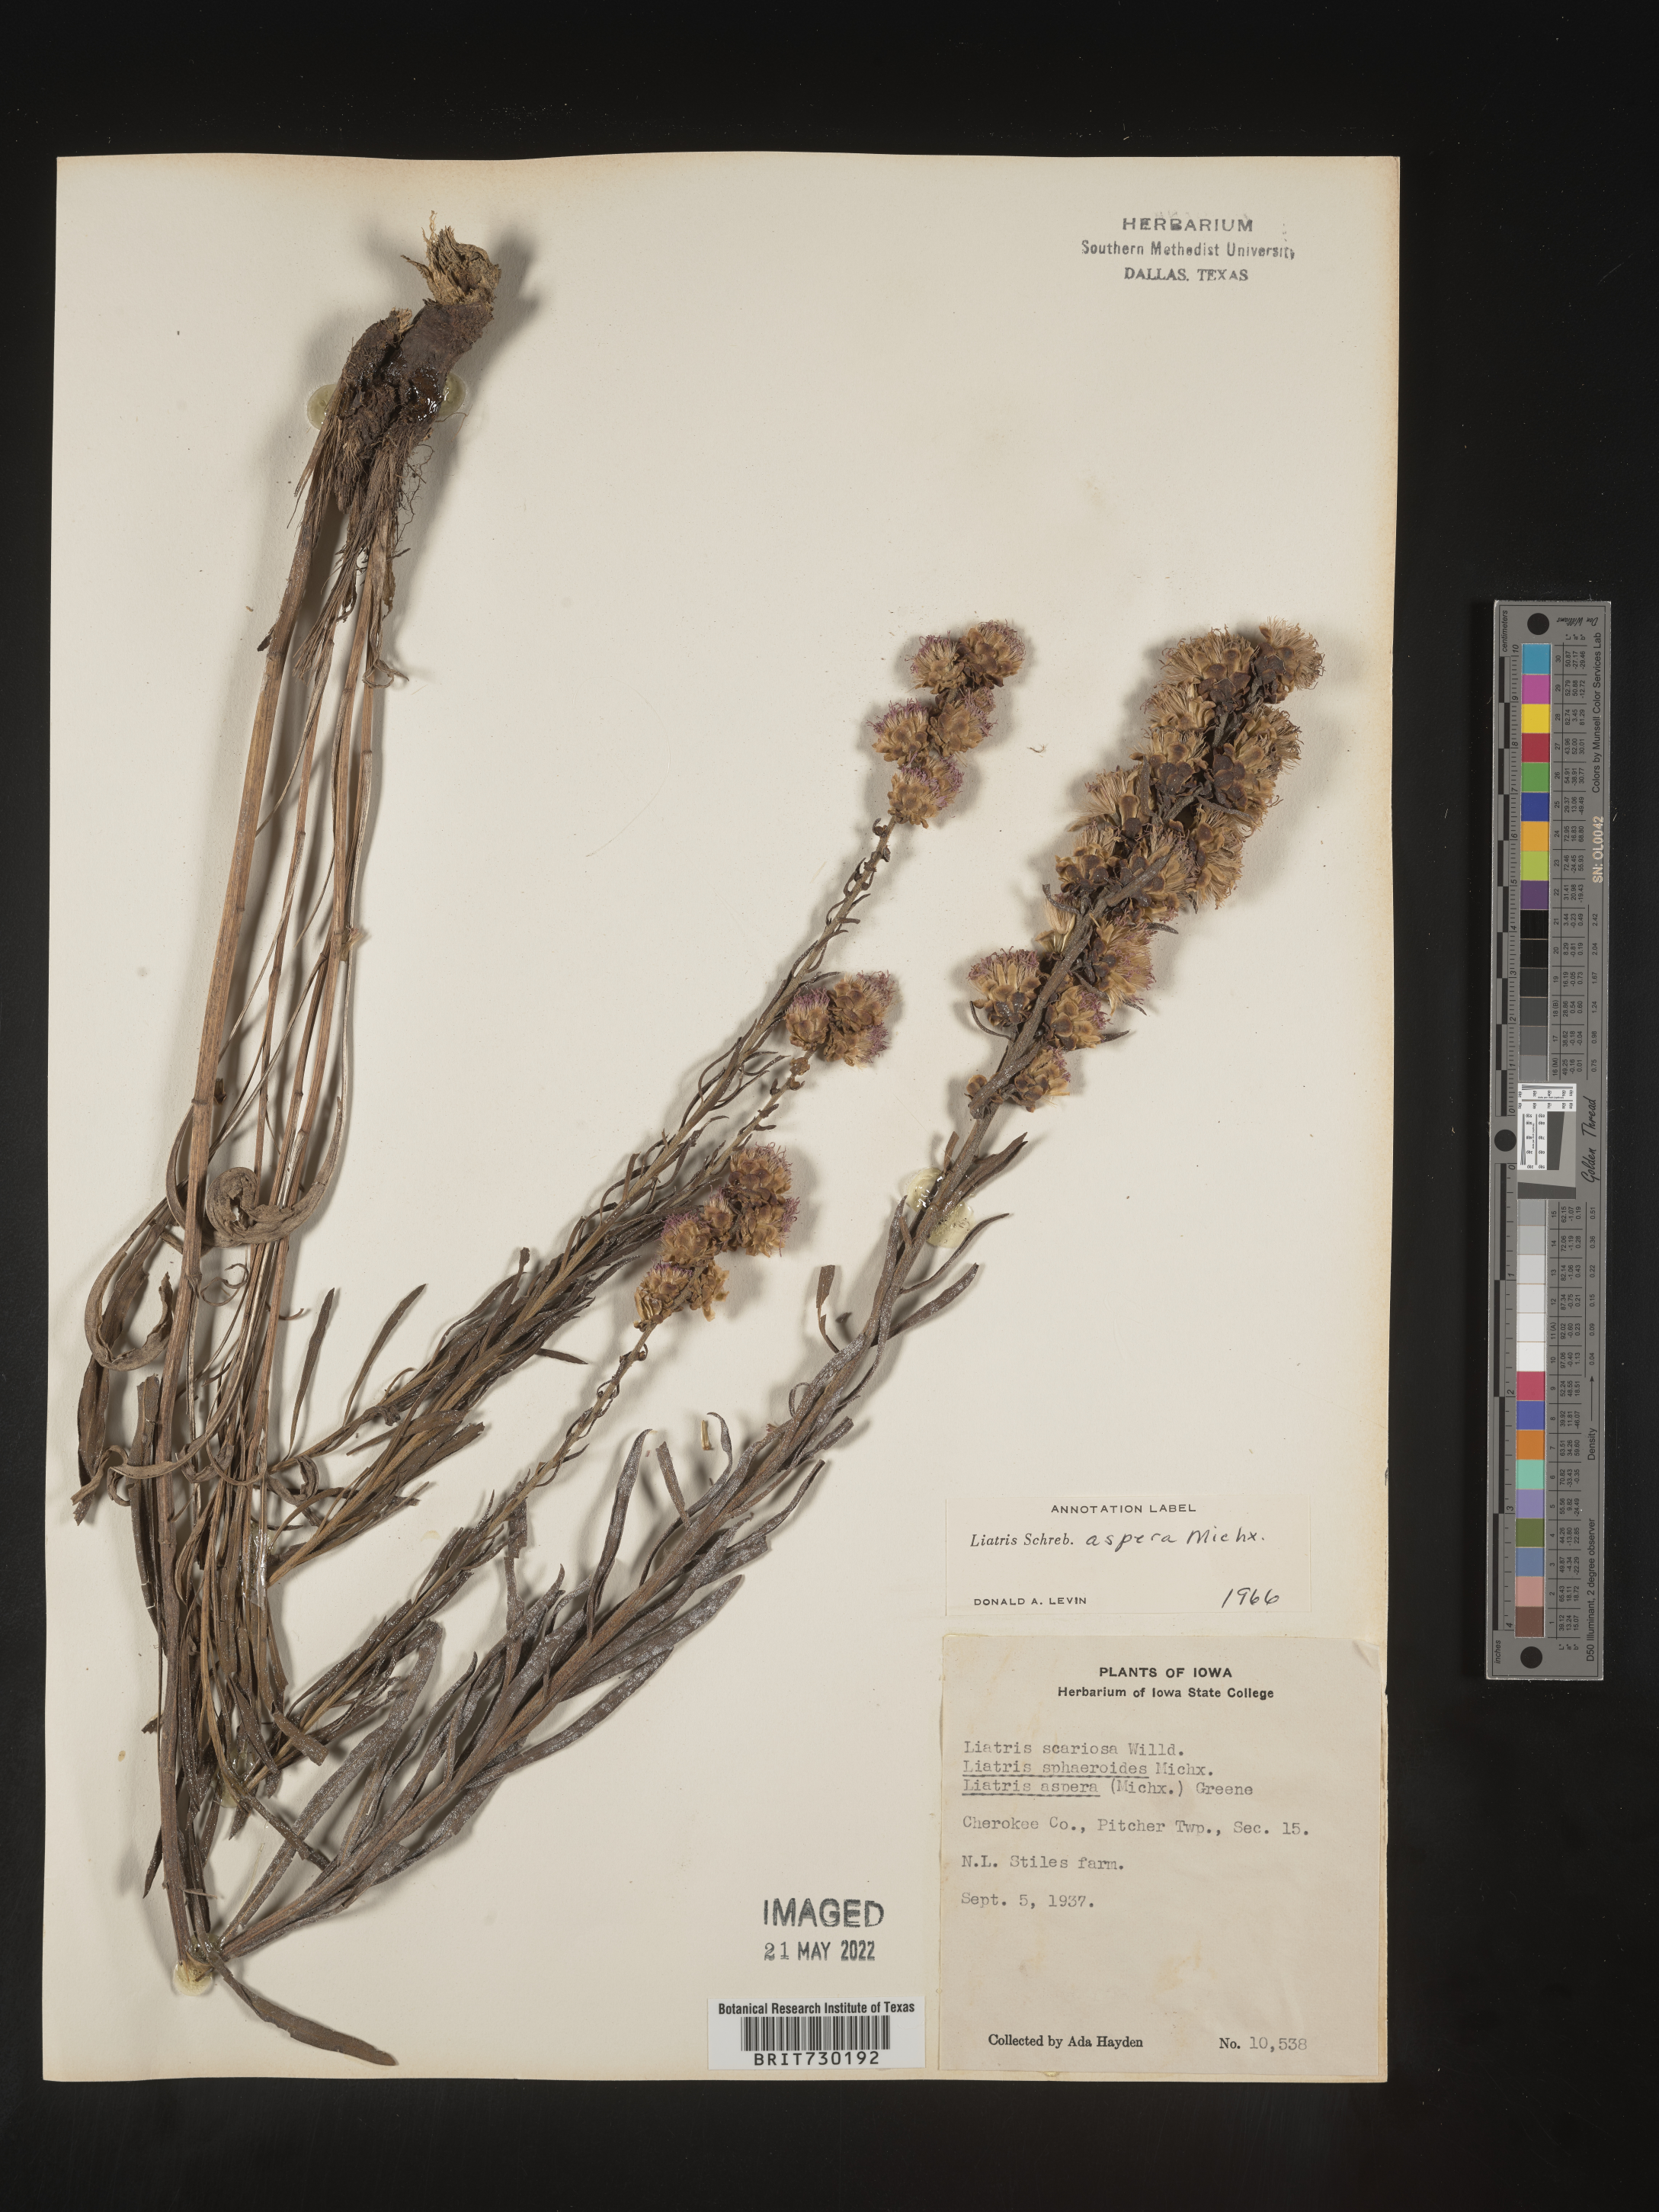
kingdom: Plantae
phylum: Tracheophyta
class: Magnoliopsida
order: Asterales
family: Asteraceae
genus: Liatris
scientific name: Liatris aspera
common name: Lacerate blazing-star
